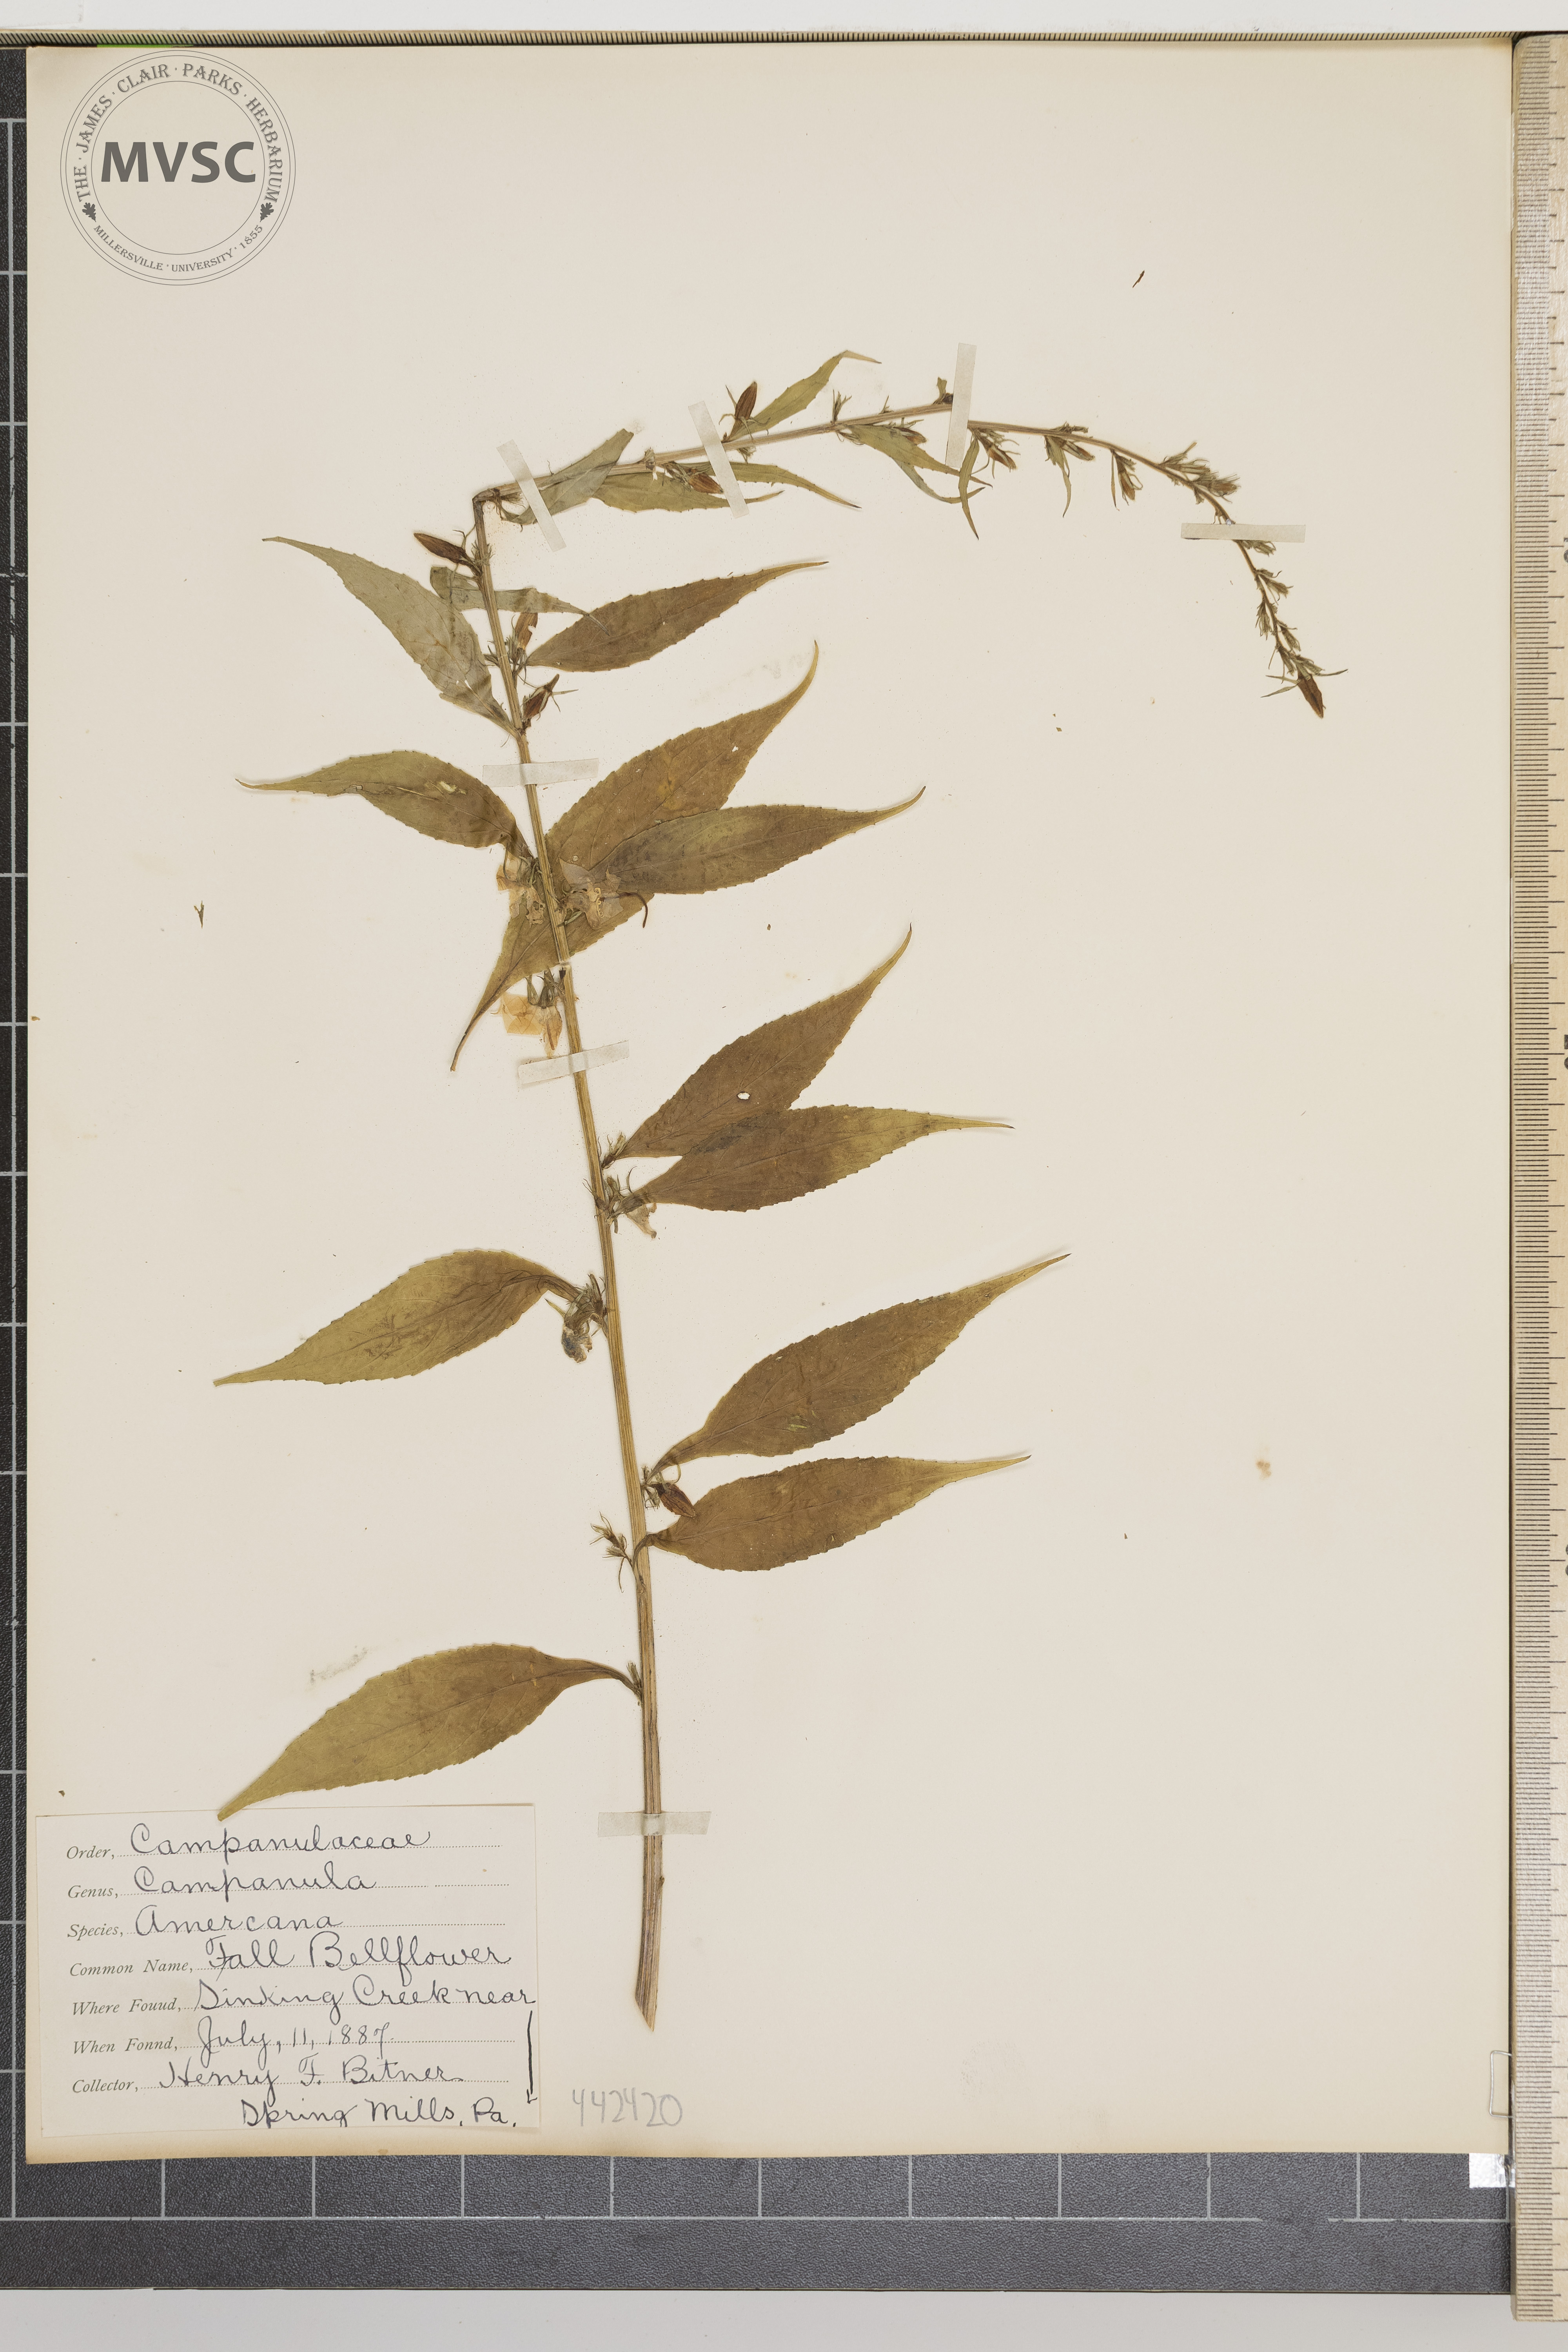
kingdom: Plantae
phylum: Tracheophyta
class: Magnoliopsida
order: Asterales
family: Campanulaceae
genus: Campanula
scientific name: Campanula americana
